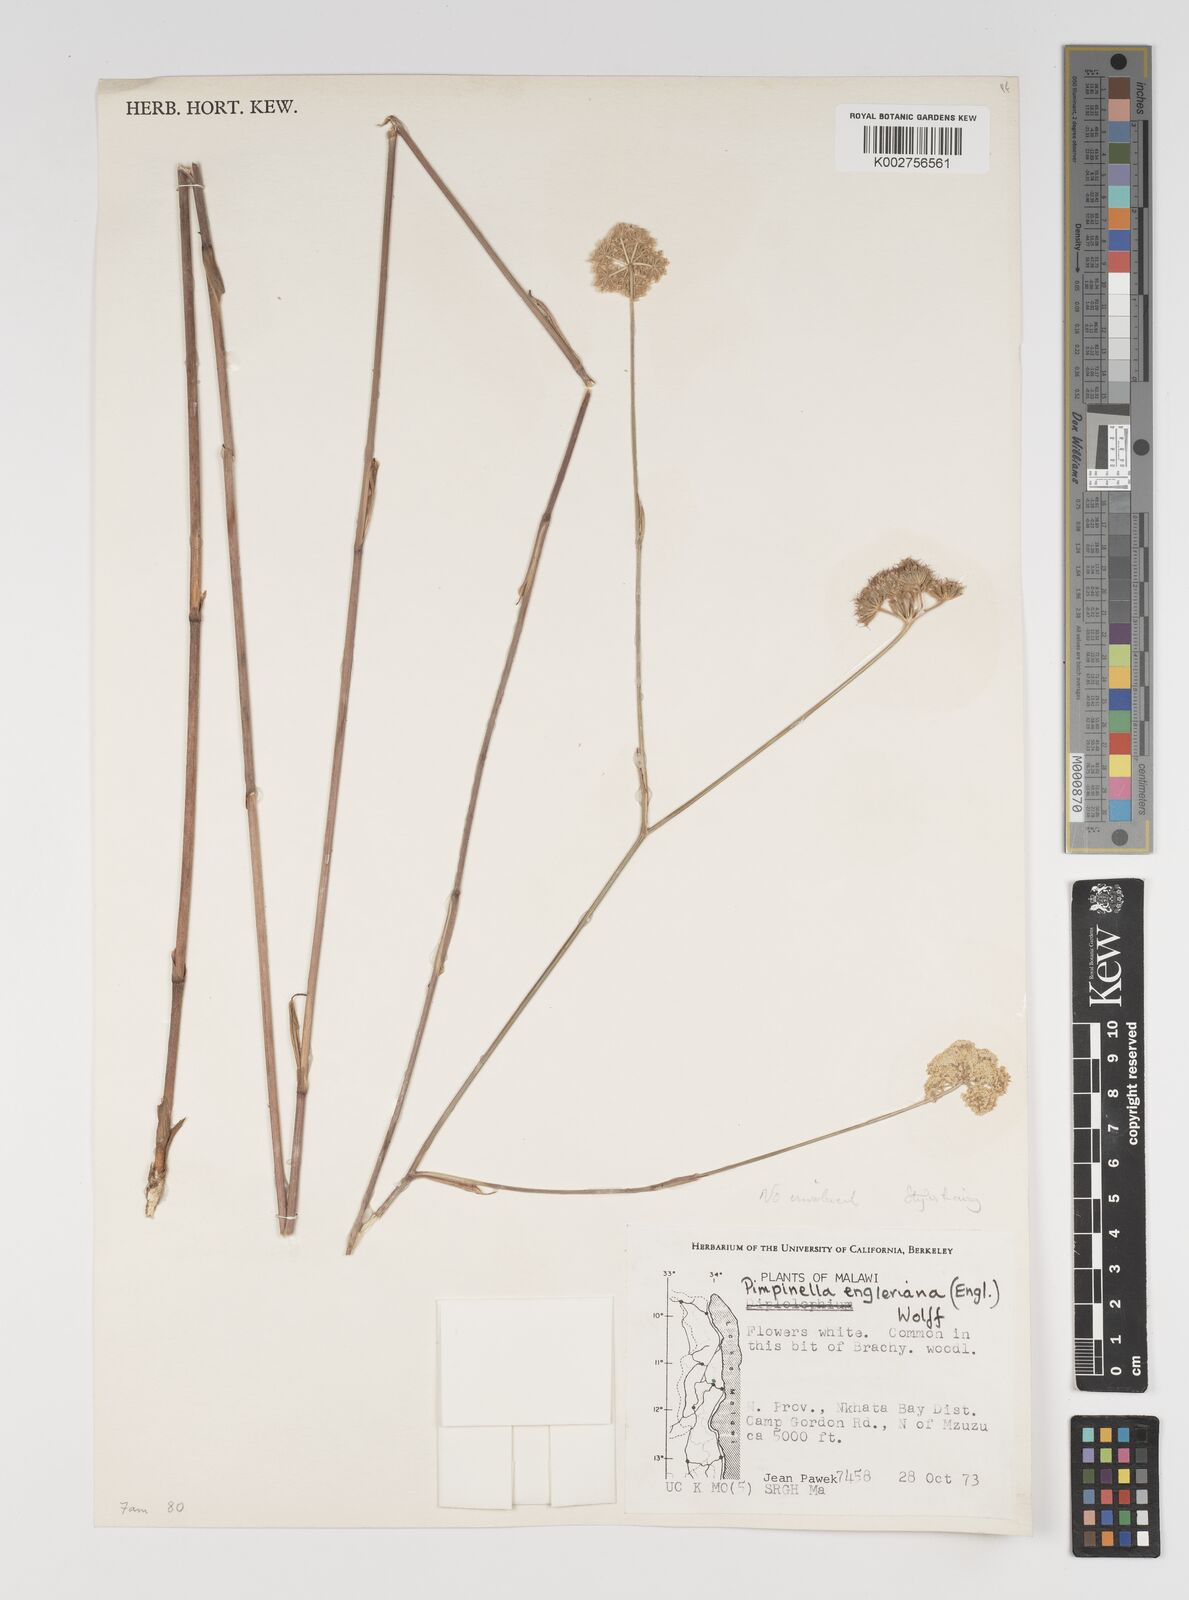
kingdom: Plantae
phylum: Tracheophyta
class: Magnoliopsida
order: Apiales
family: Apiaceae
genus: Pimpinella
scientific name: Pimpinella kingdon-wardii
